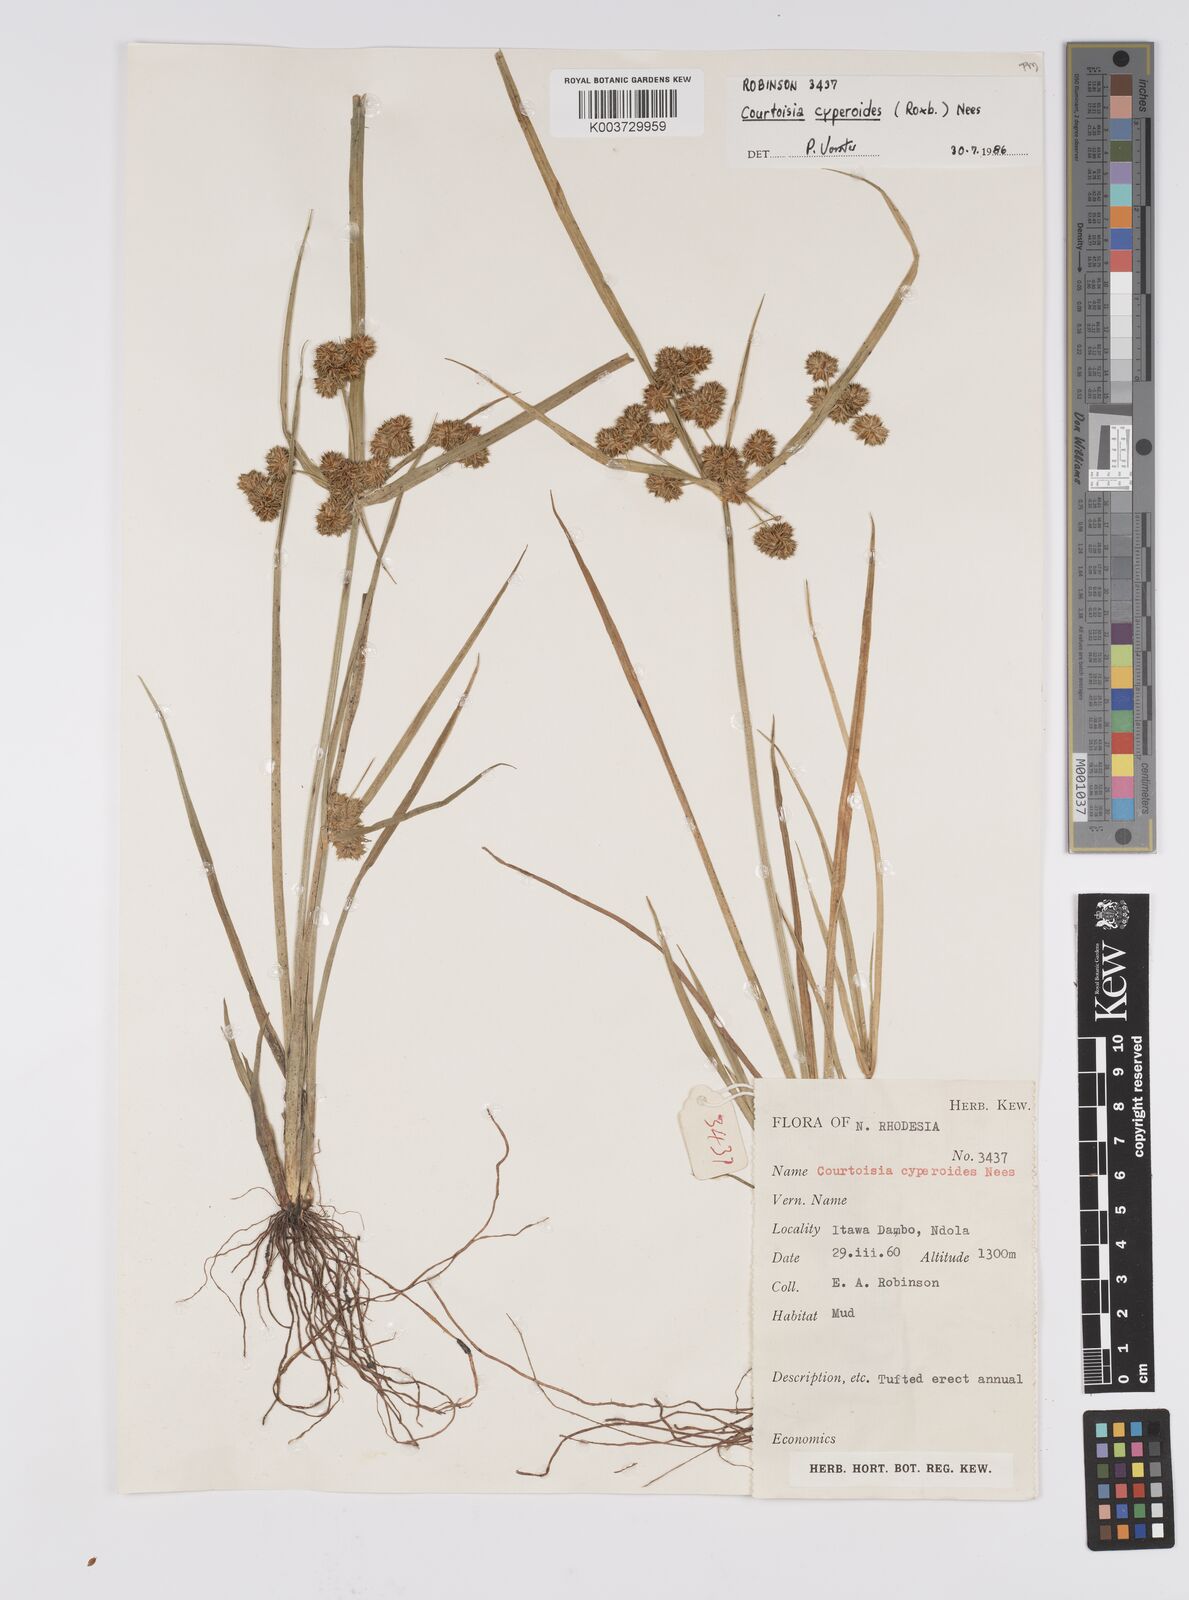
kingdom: Plantae
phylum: Tracheophyta
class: Liliopsida
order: Poales
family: Cyperaceae
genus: Cyperus
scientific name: Cyperus cyperoides
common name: Pacific island flat sedge
